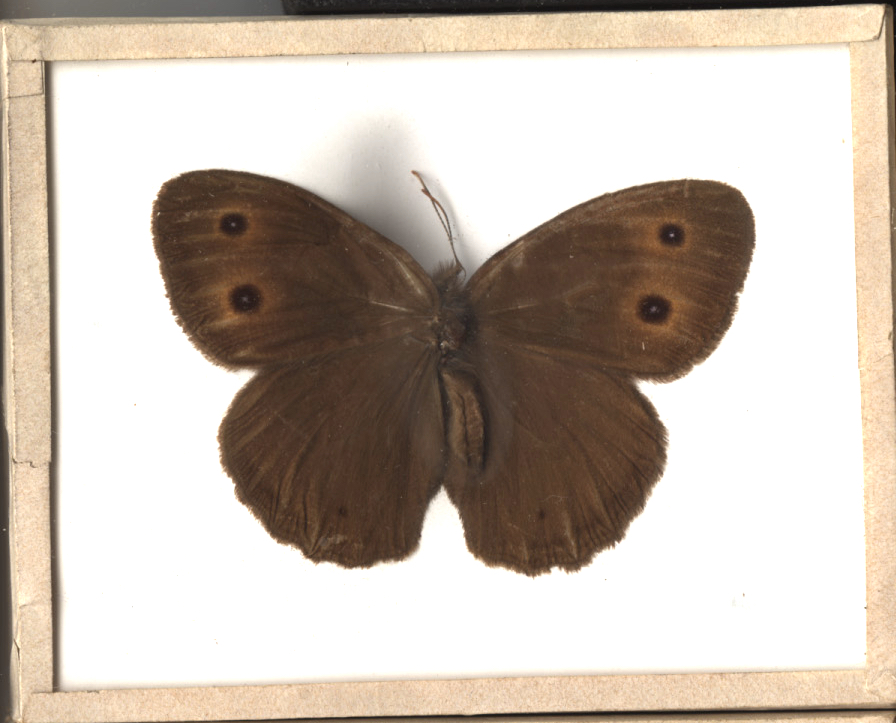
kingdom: Animalia
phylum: Arthropoda
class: Insecta
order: Lepidoptera
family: Nymphalidae
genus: Cercyonis
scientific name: Cercyonis pegala
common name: Common Wood Nymph
